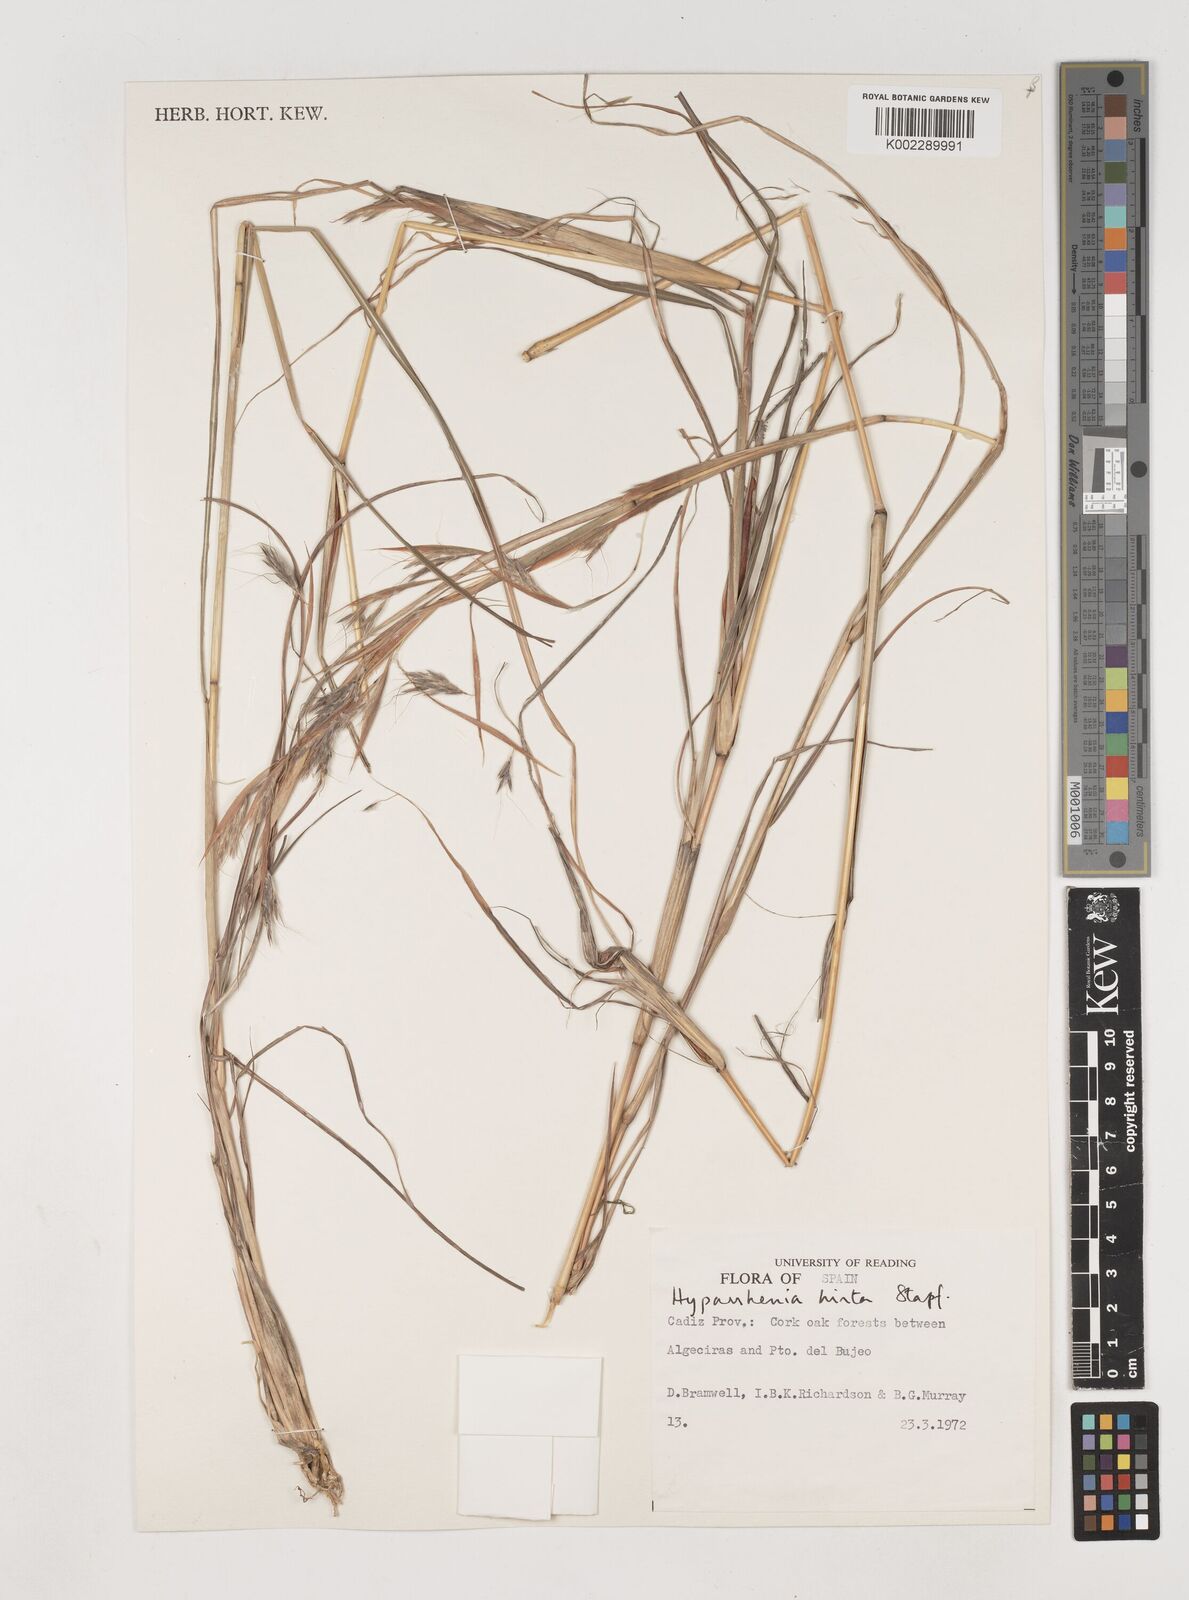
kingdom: Plantae
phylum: Tracheophyta
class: Liliopsida
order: Poales
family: Poaceae
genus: Hyparrhenia
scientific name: Hyparrhenia hirta
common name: Thatching grass
